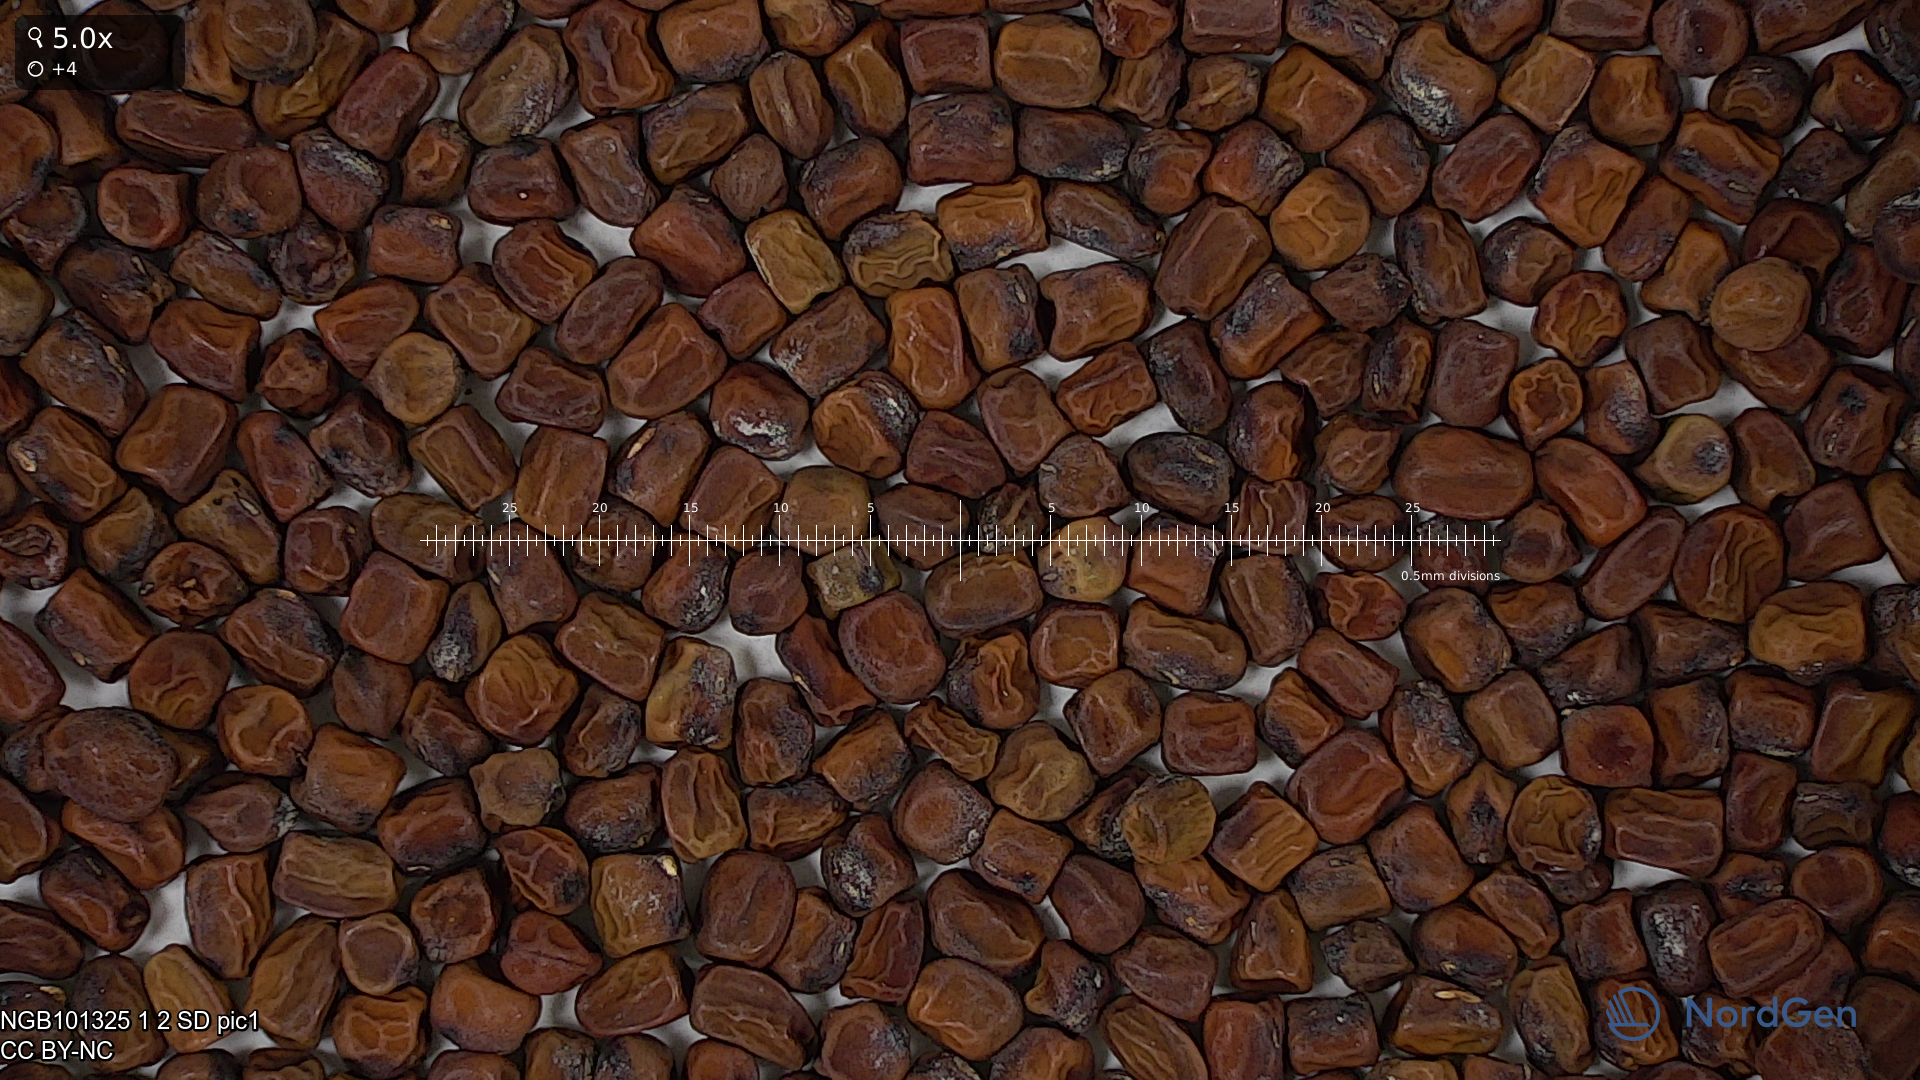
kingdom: Plantae
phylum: Tracheophyta
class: Magnoliopsida
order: Fabales
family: Fabaceae
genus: Lathyrus
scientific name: Lathyrus oleraceus
